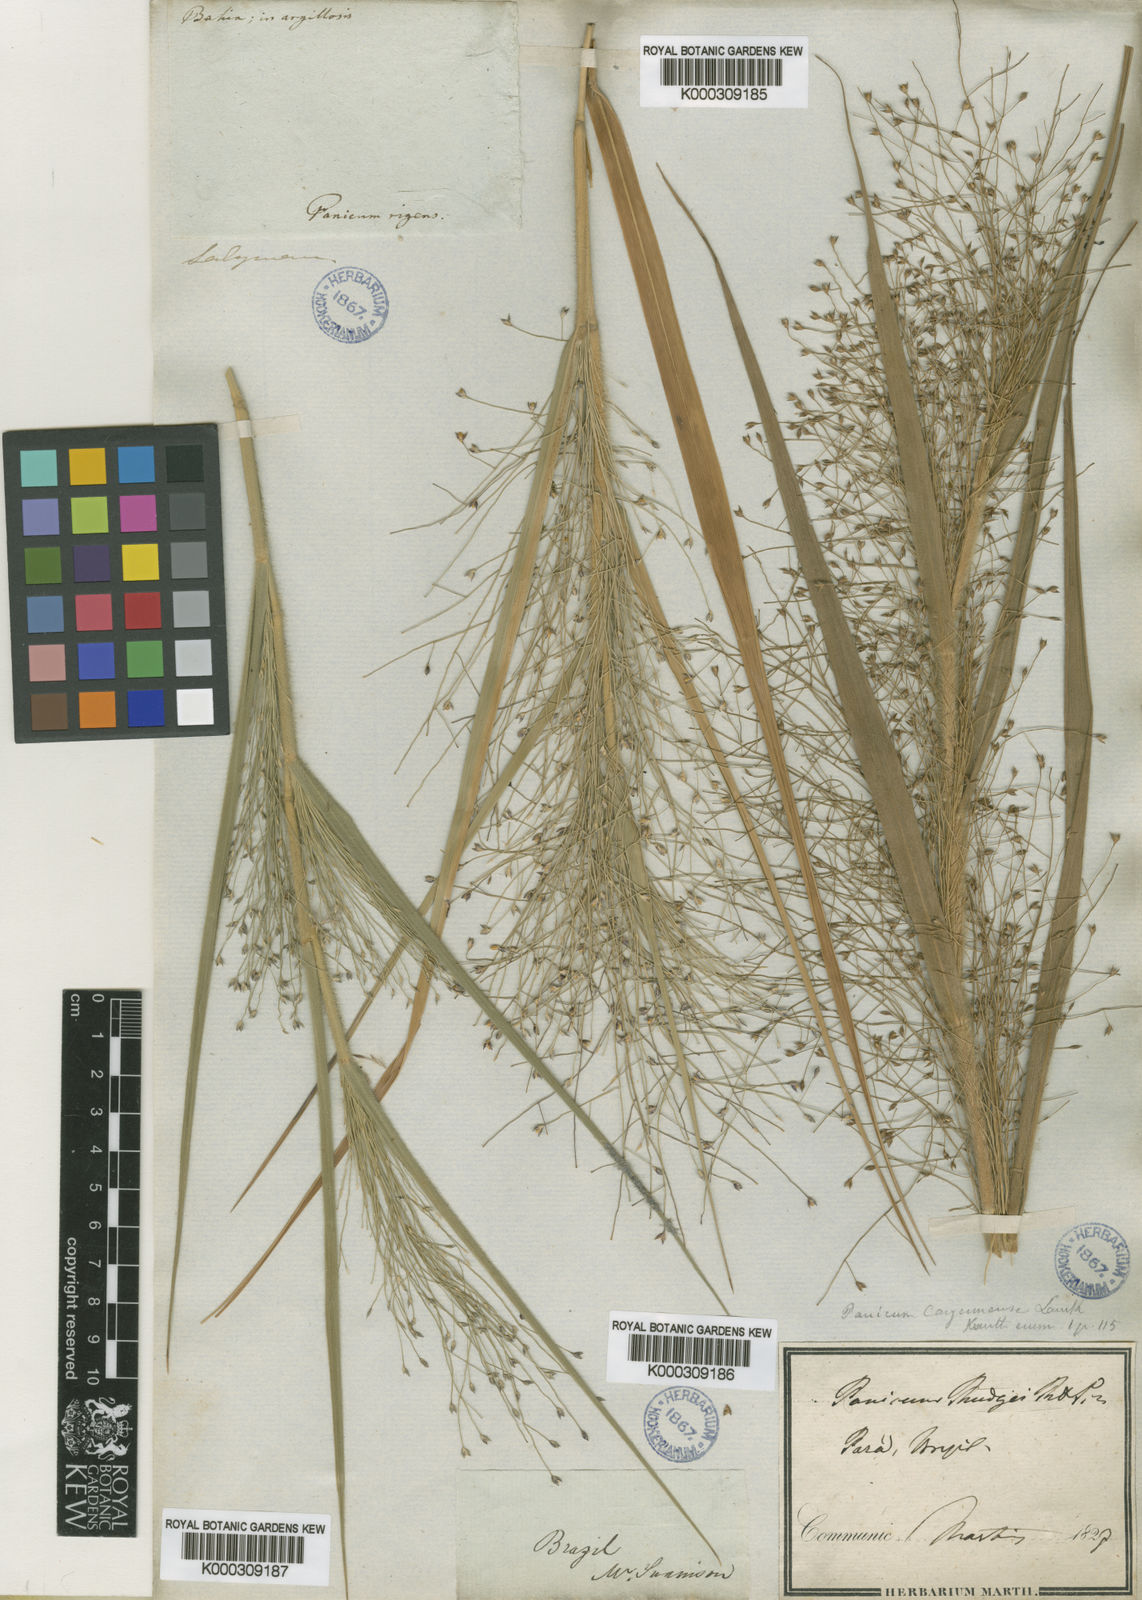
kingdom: Plantae
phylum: Tracheophyta
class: Liliopsida
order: Poales
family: Poaceae
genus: Panicum
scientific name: Panicum rudgei
